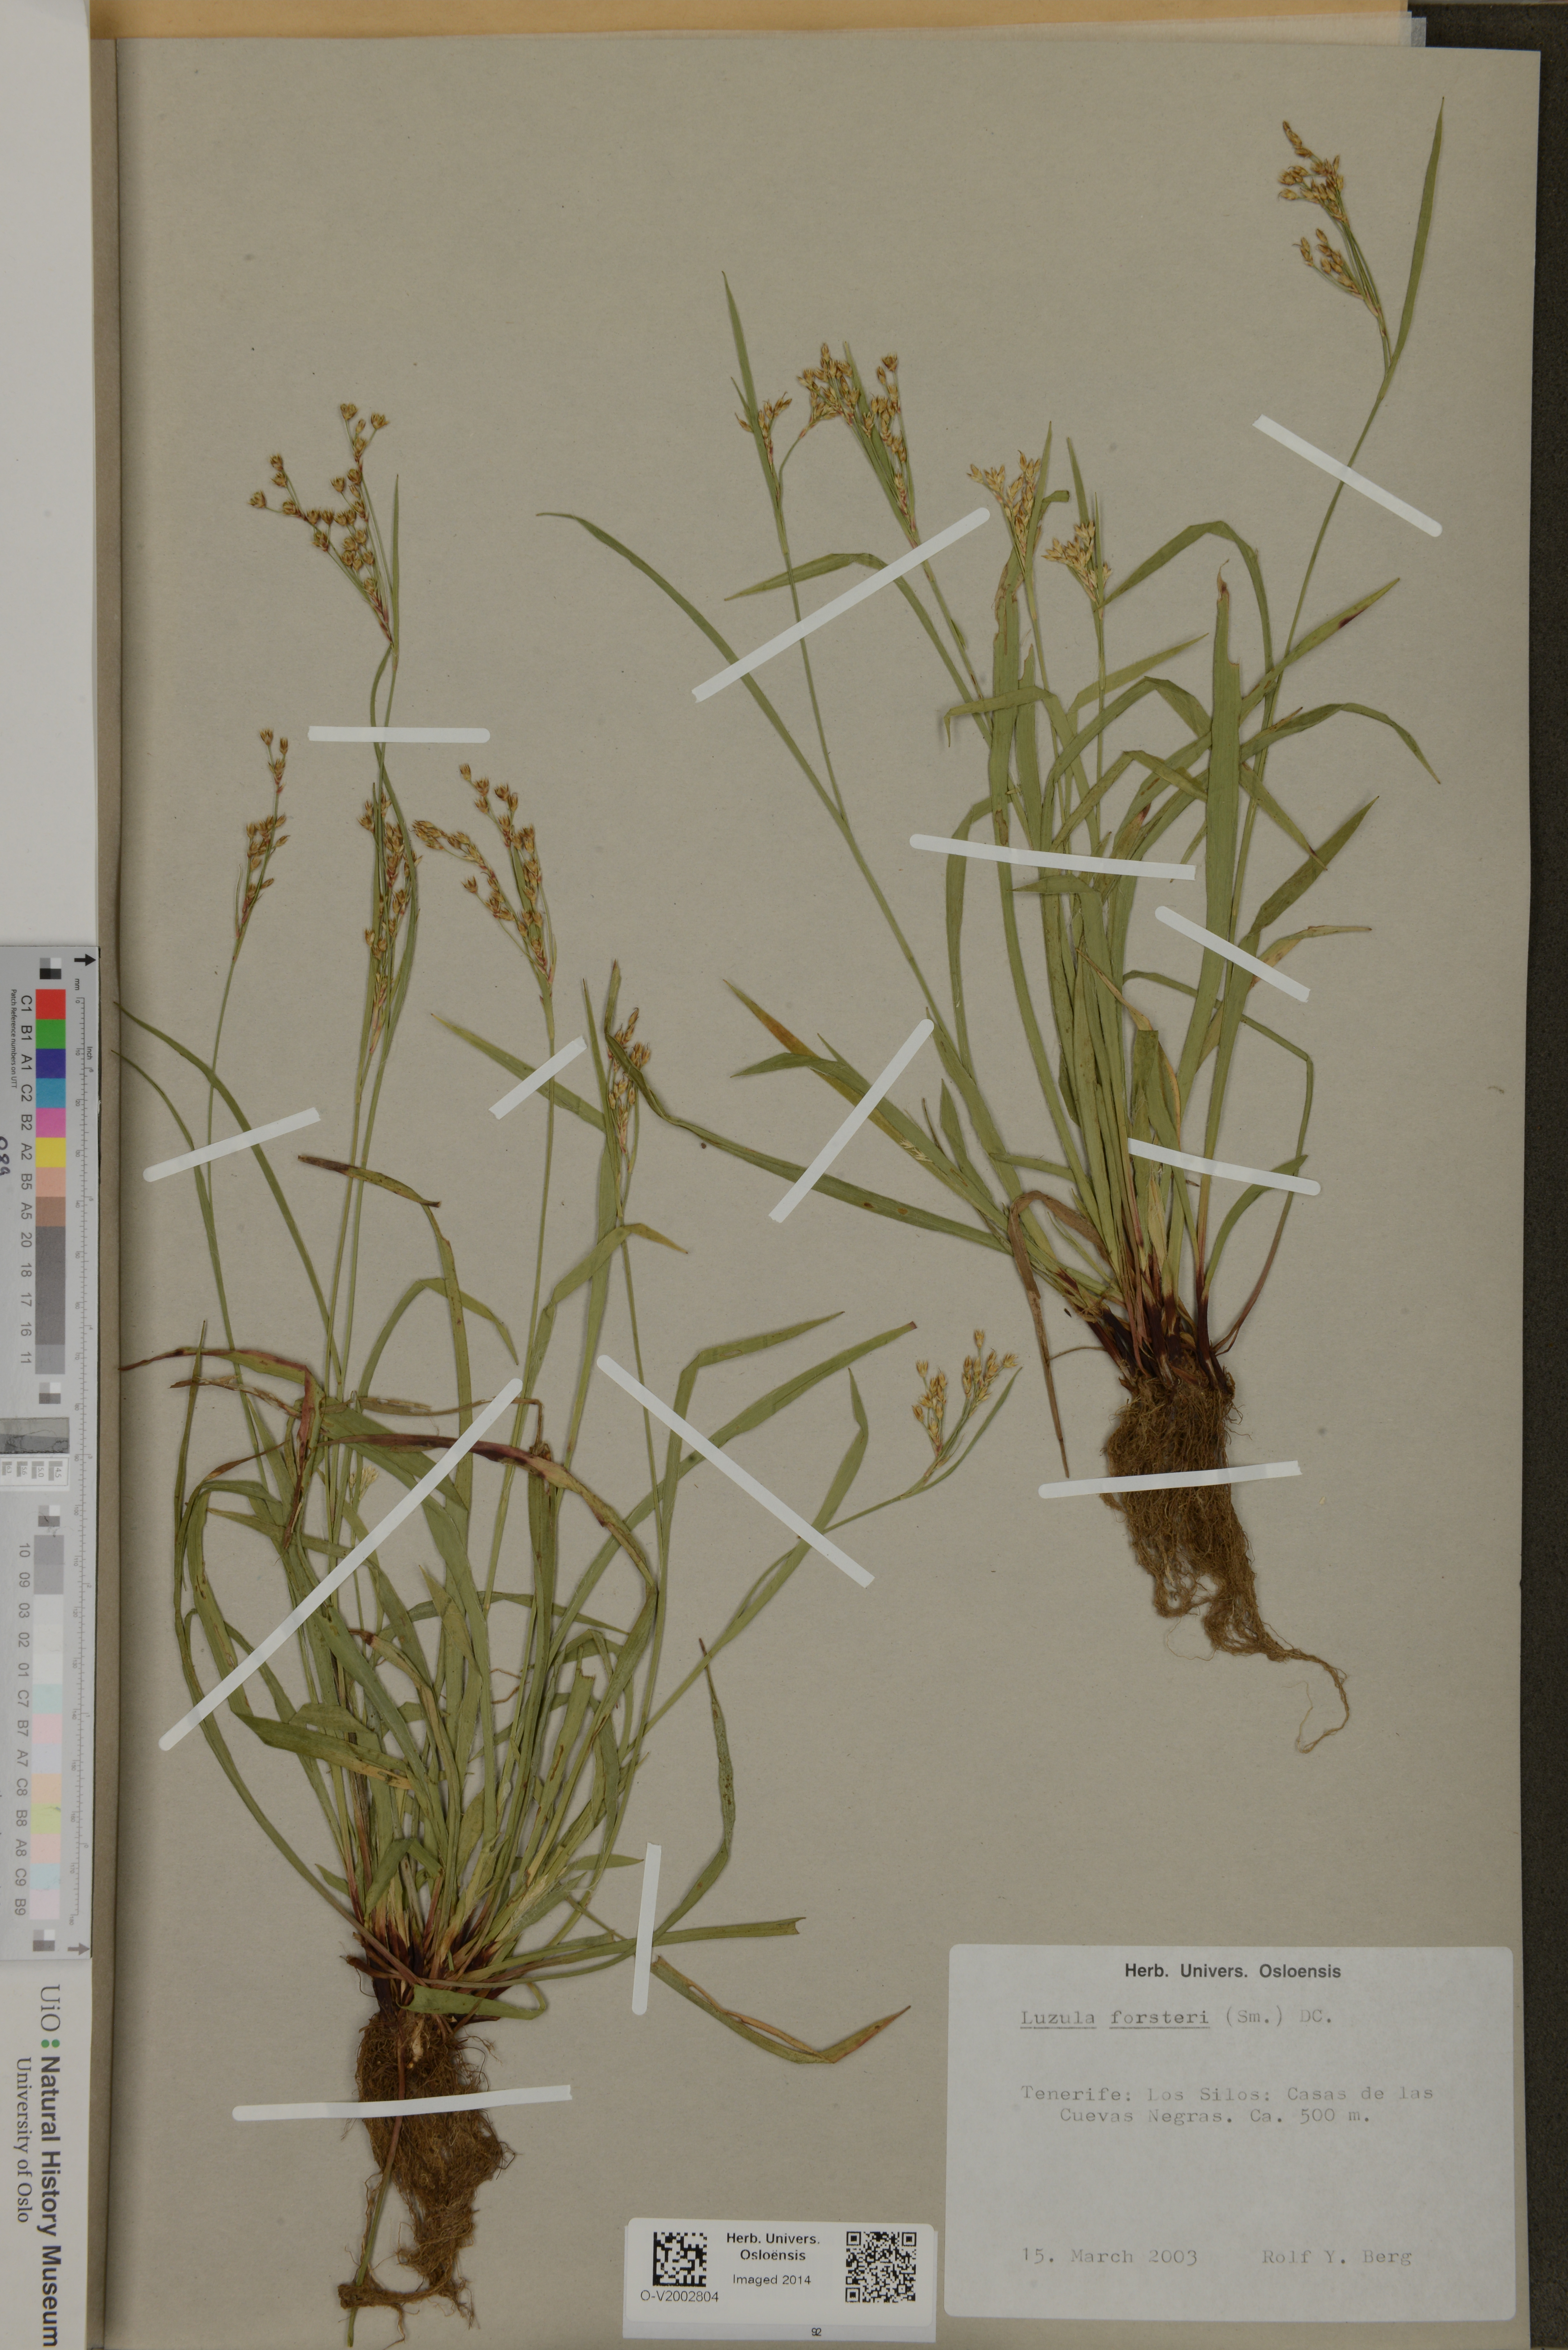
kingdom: Plantae
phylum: Tracheophyta
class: Liliopsida
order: Poales
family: Juncaceae
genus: Luzula
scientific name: Luzula forsteri
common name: Southern wood-rush
